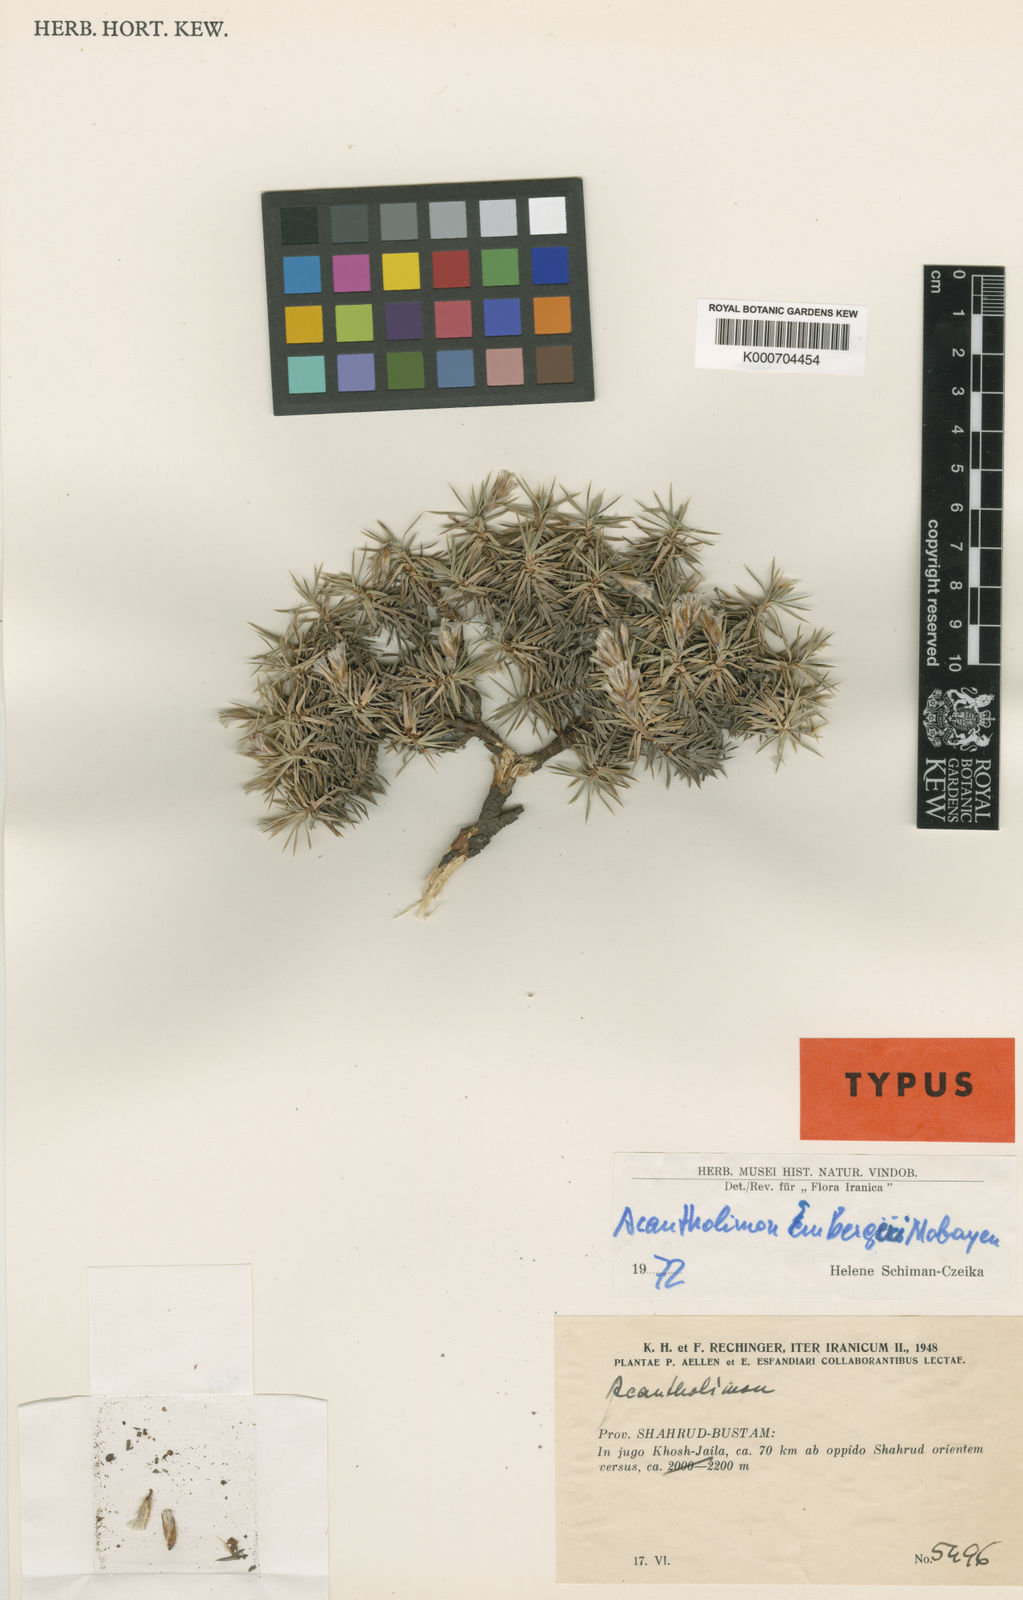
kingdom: Plantae
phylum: Tracheophyta
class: Magnoliopsida
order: Caryophyllales
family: Plumbaginaceae
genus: Acantholimon
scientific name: Acantholimon embergeri
